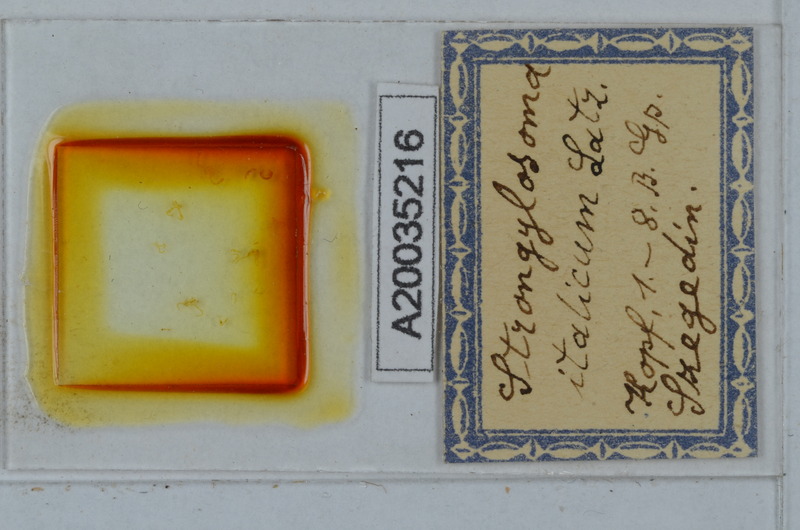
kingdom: Animalia
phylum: Arthropoda
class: Diplopoda
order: Polydesmida
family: Paradoxosomatidae
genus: Strongylosoma
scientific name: Strongylosoma italica
